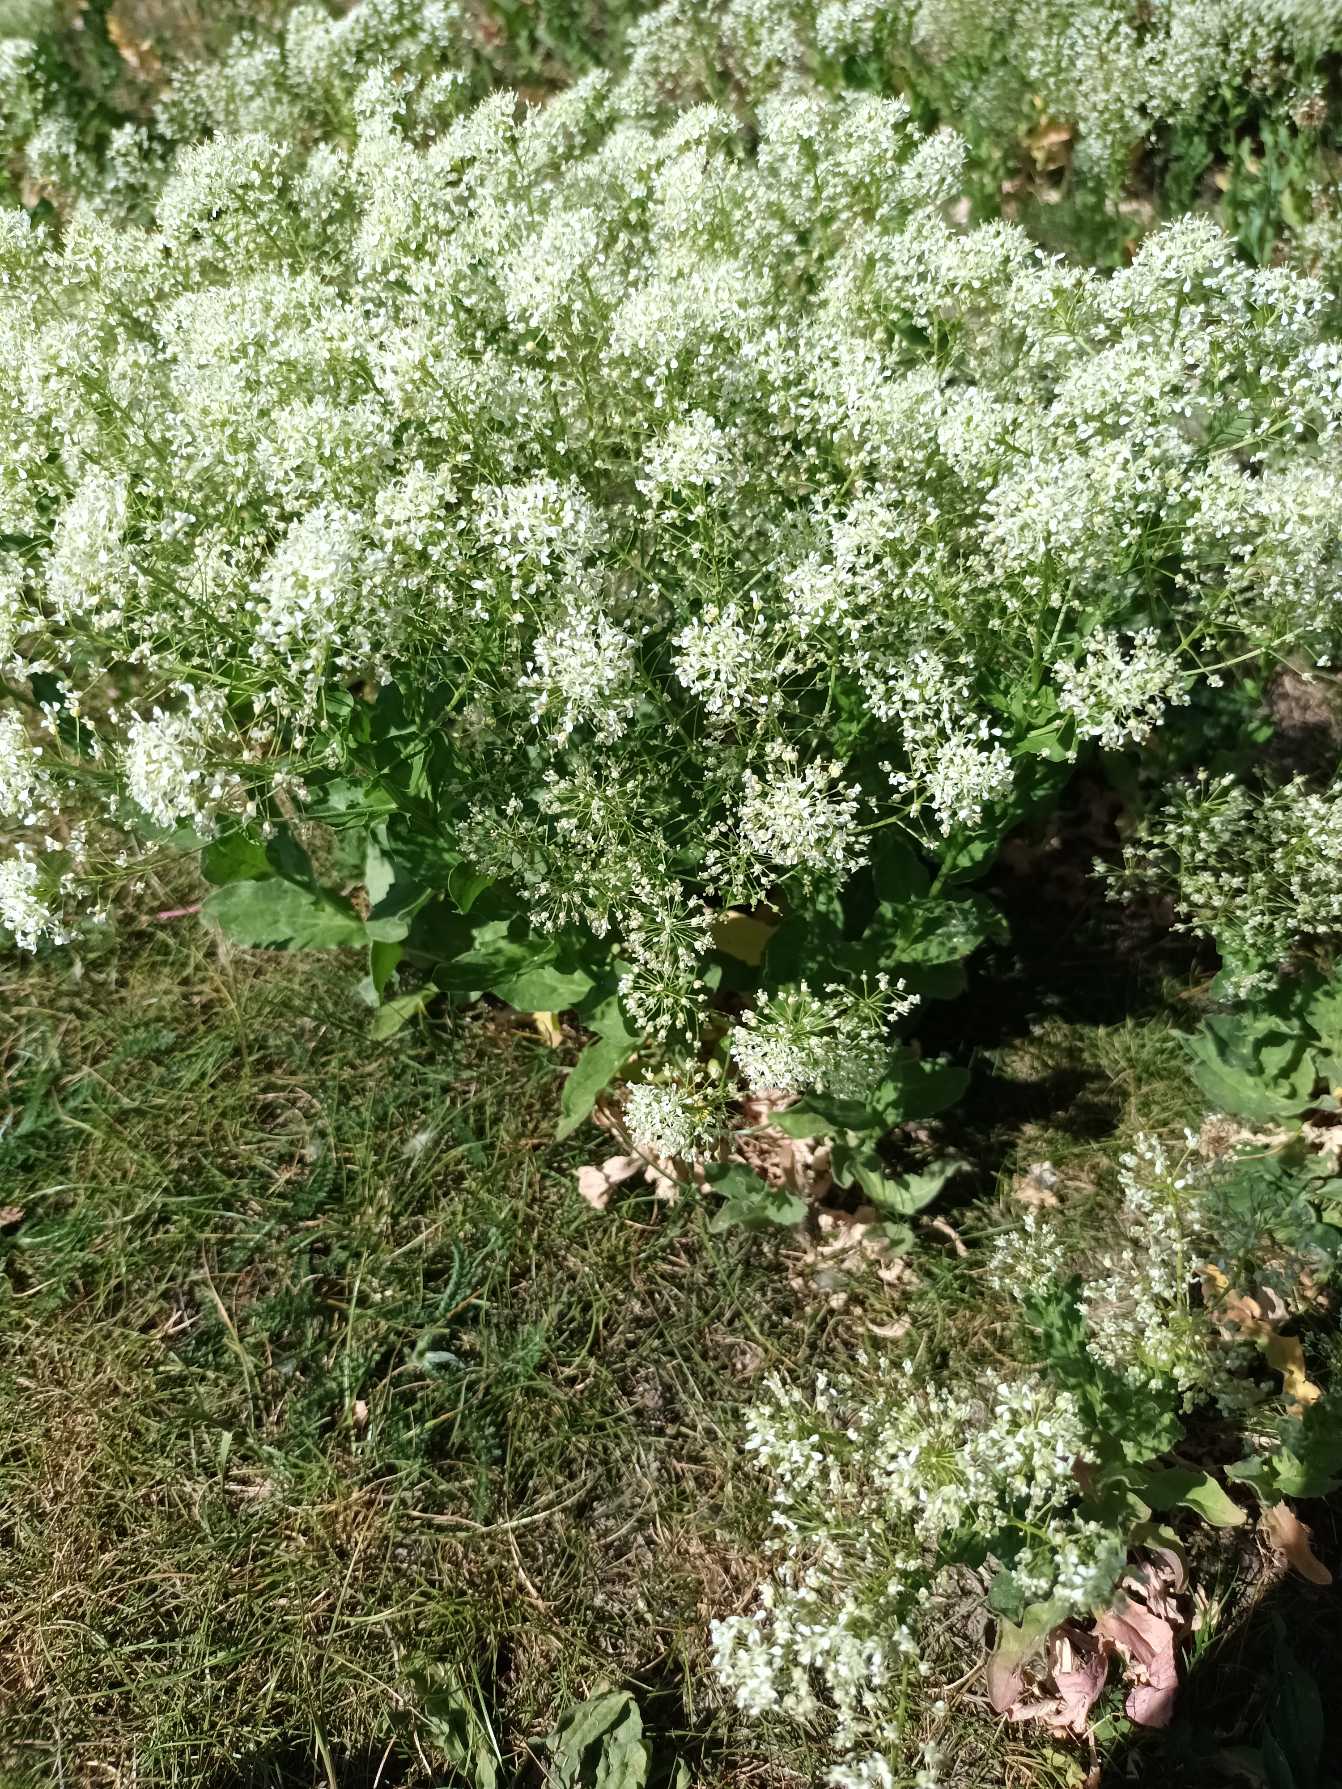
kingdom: Plantae
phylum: Tracheophyta
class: Magnoliopsida
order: Brassicales
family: Brassicaceae
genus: Lepidium
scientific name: Lepidium draba
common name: Hjerte-karse
